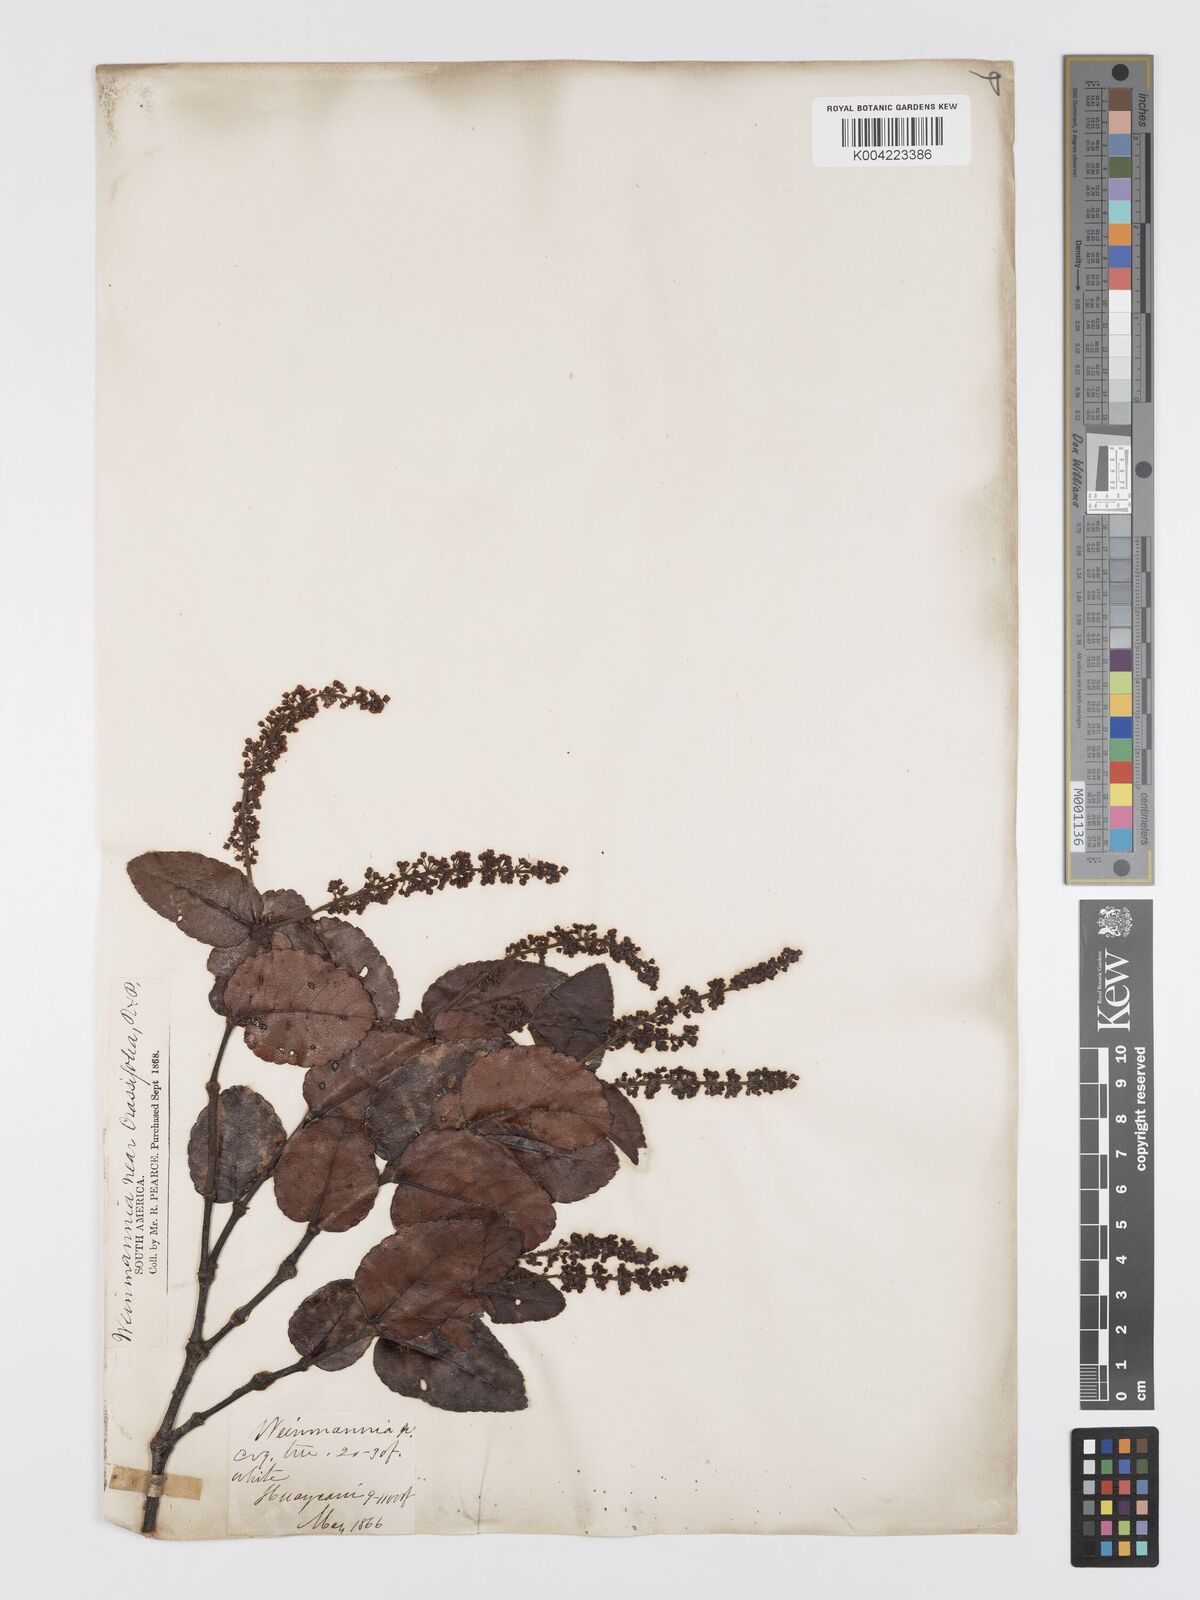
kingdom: Plantae
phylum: Tracheophyta
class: Magnoliopsida
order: Oxalidales
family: Cunoniaceae
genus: Weinmannia
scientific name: Weinmannia crassifolia
